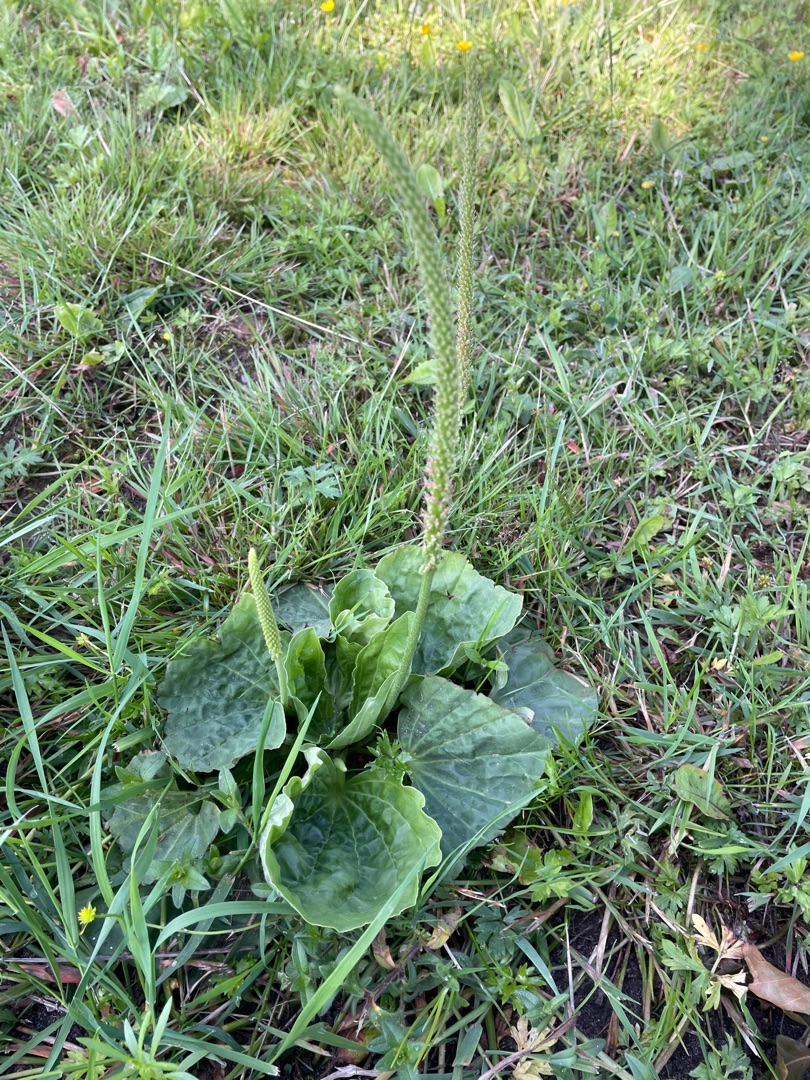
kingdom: Plantae
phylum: Tracheophyta
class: Magnoliopsida
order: Lamiales
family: Plantaginaceae
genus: Plantago
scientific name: Plantago major
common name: Glat vejbred
